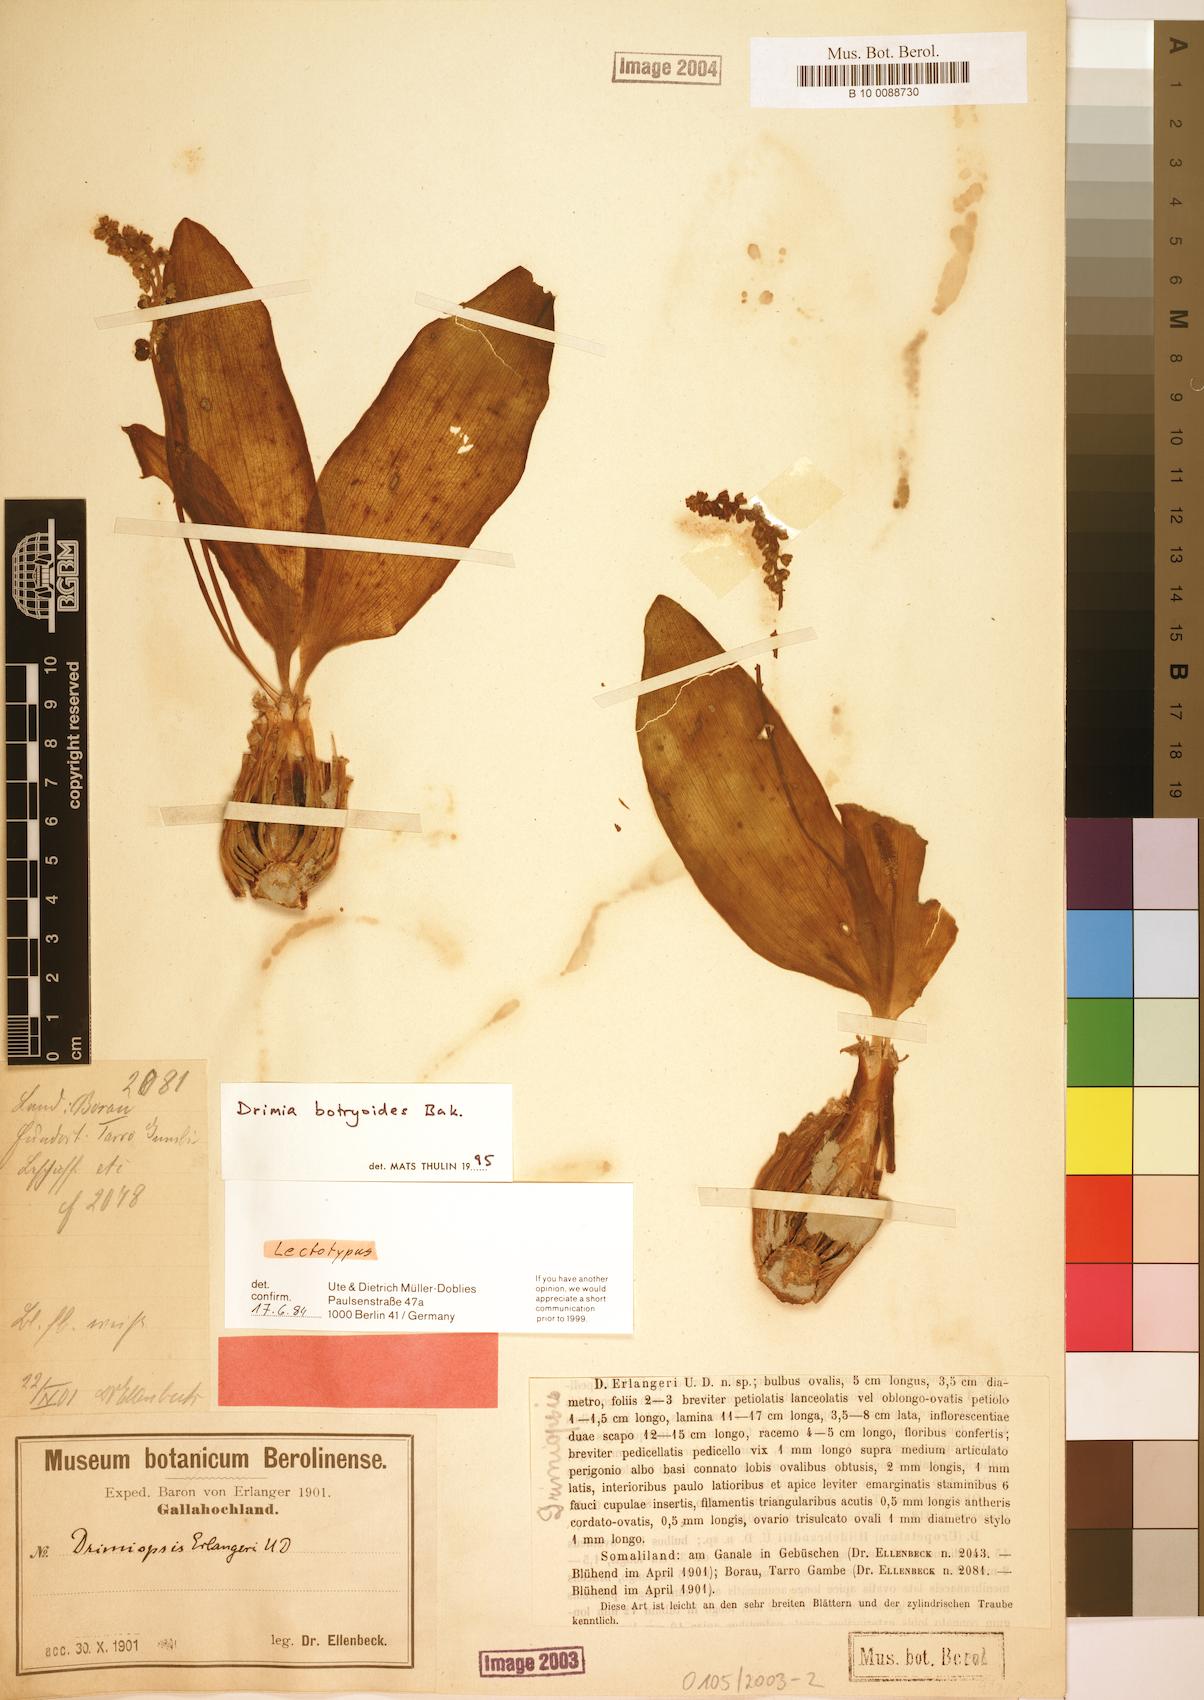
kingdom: Plantae
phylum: Tracheophyta
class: Liliopsida
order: Asparagales
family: Asparagaceae
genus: Drimia
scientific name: Drimia
